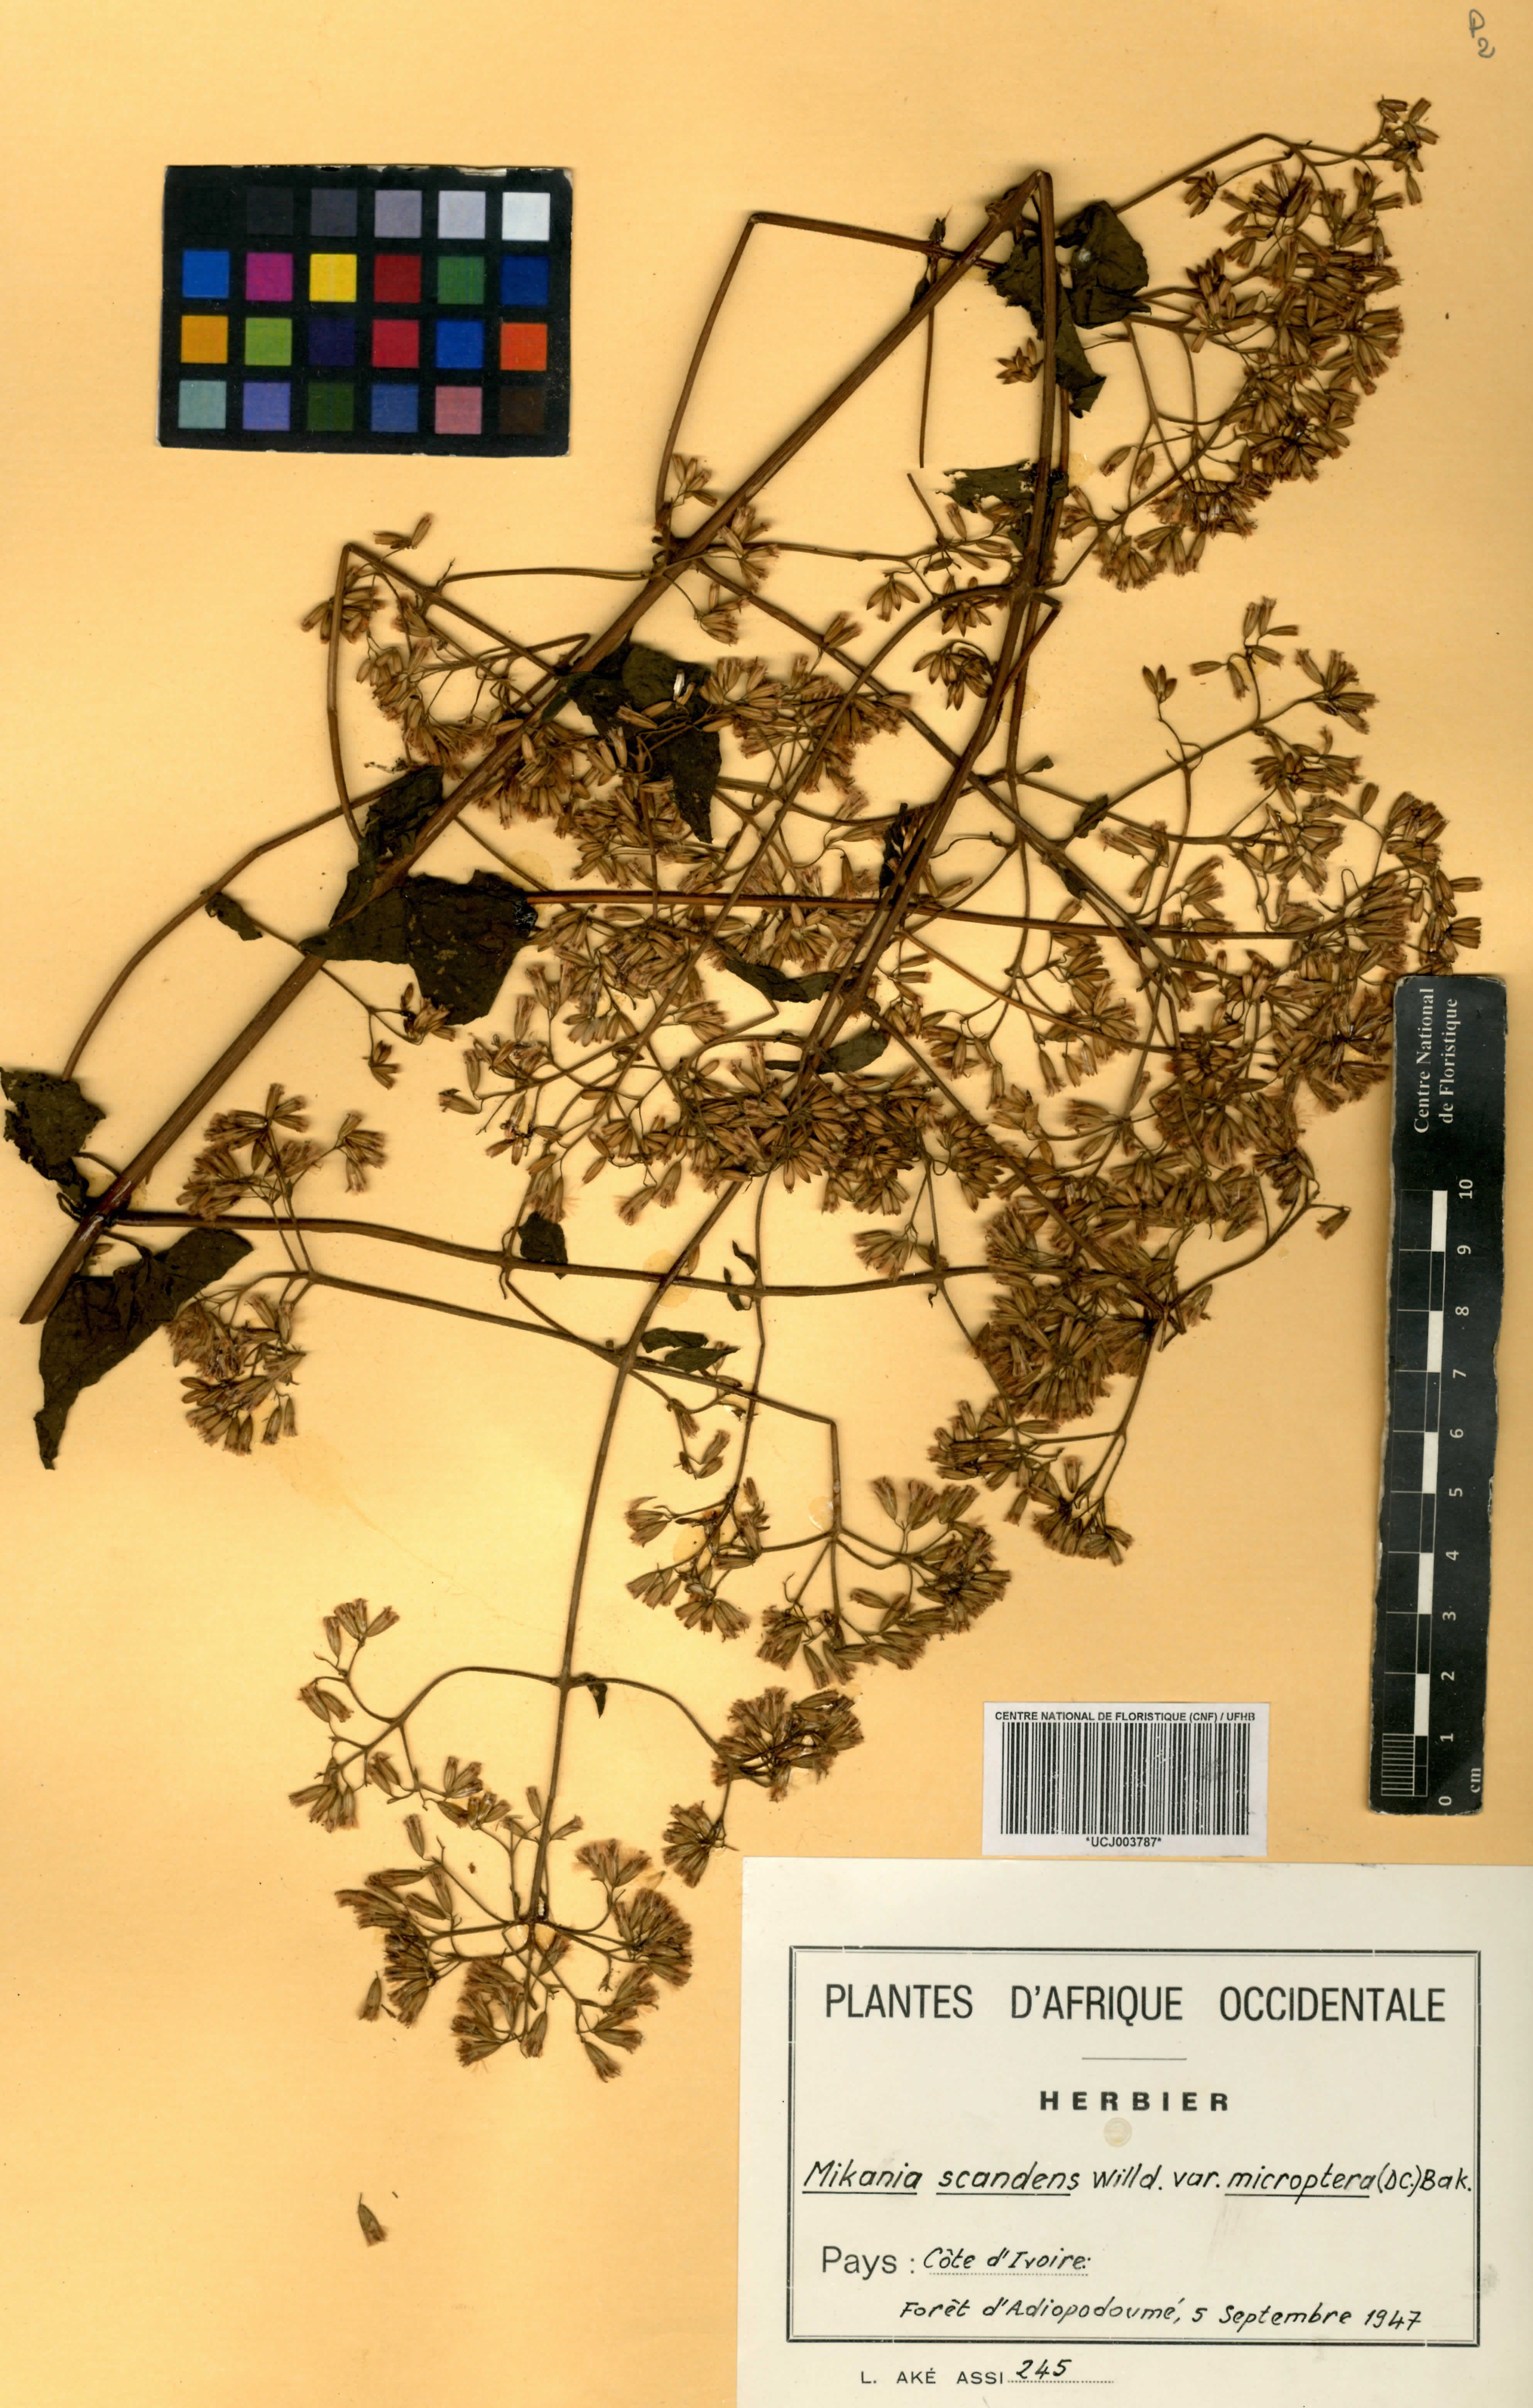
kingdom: Plantae
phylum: Tracheophyta
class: Magnoliopsida
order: Asterales
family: Asteraceae
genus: Mikania
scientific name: Mikania scandens
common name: Climbing hempvine
